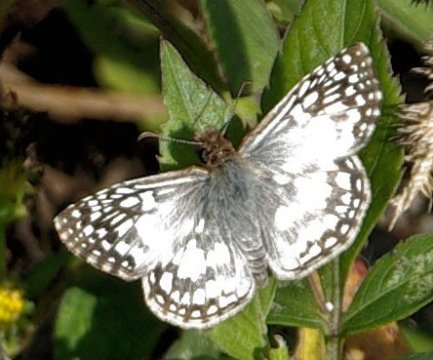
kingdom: Animalia
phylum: Arthropoda
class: Insecta
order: Lepidoptera
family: Hesperiidae
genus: Pyrgus
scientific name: Pyrgus oileus
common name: Tropical Checkered-Skipper
